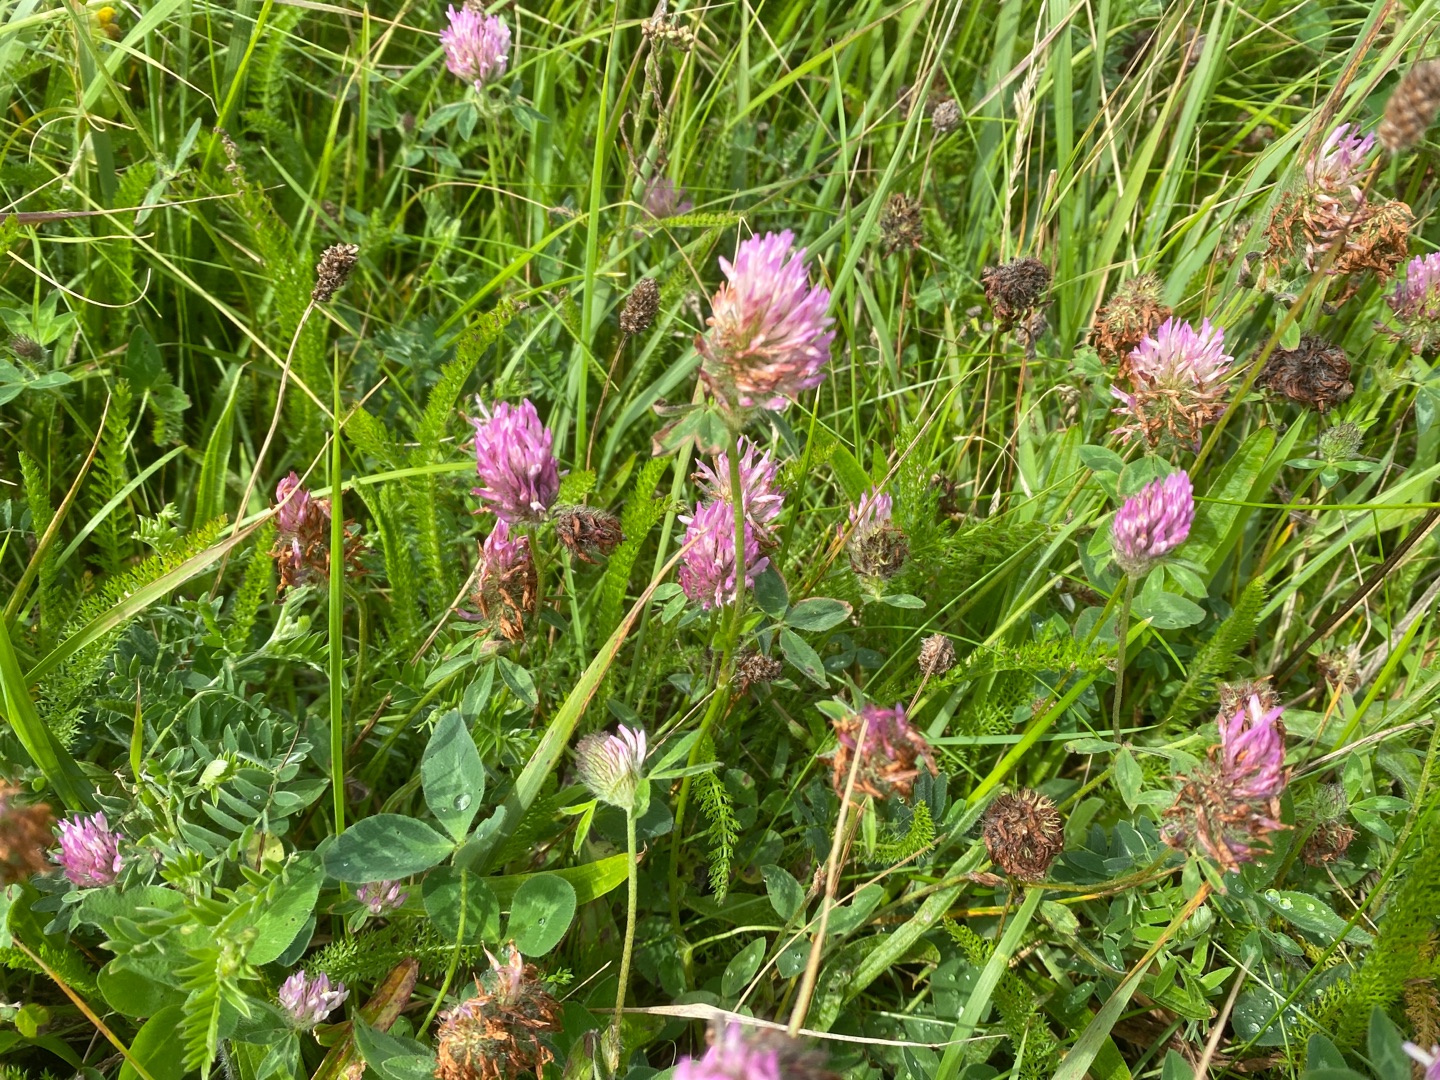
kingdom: Plantae
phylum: Tracheophyta
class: Magnoliopsida
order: Fabales
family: Fabaceae
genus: Trifolium
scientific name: Trifolium pratense
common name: Rød-kløver
